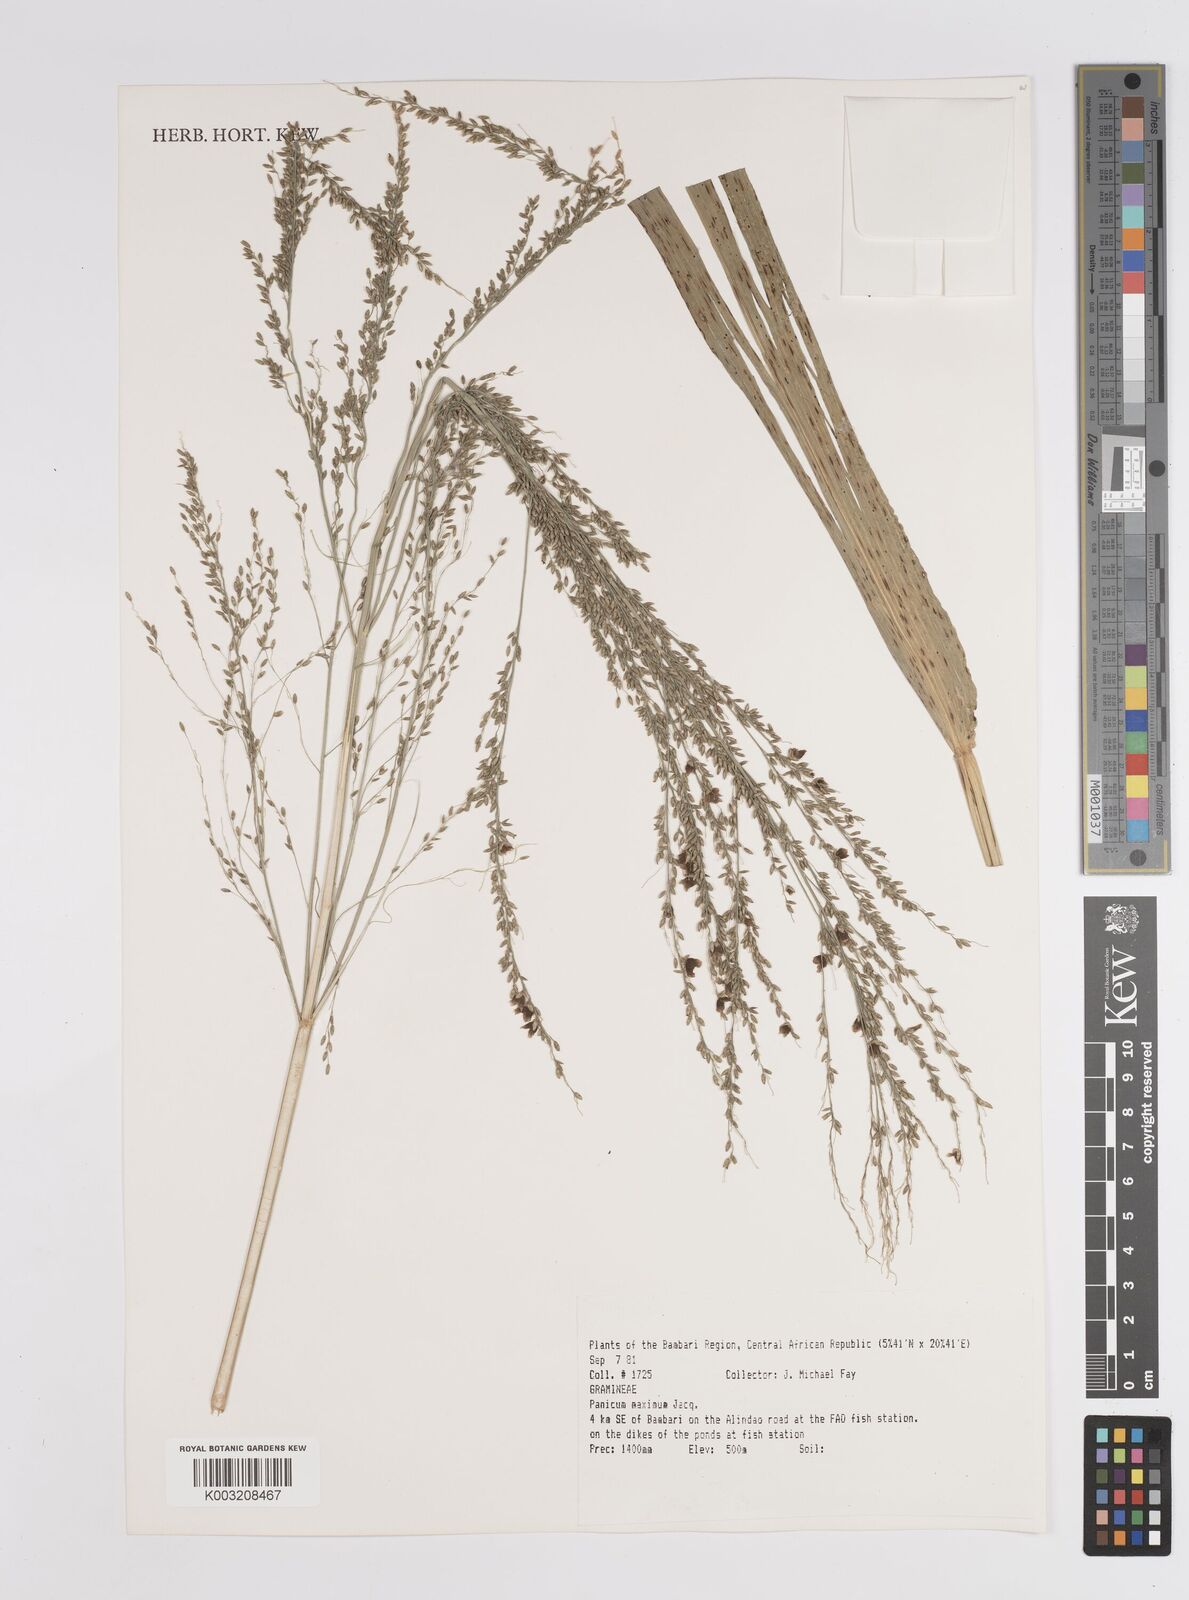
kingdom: Plantae
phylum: Tracheophyta
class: Liliopsida
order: Poales
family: Poaceae
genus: Megathyrsus
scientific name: Megathyrsus maximus
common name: Guineagrass
